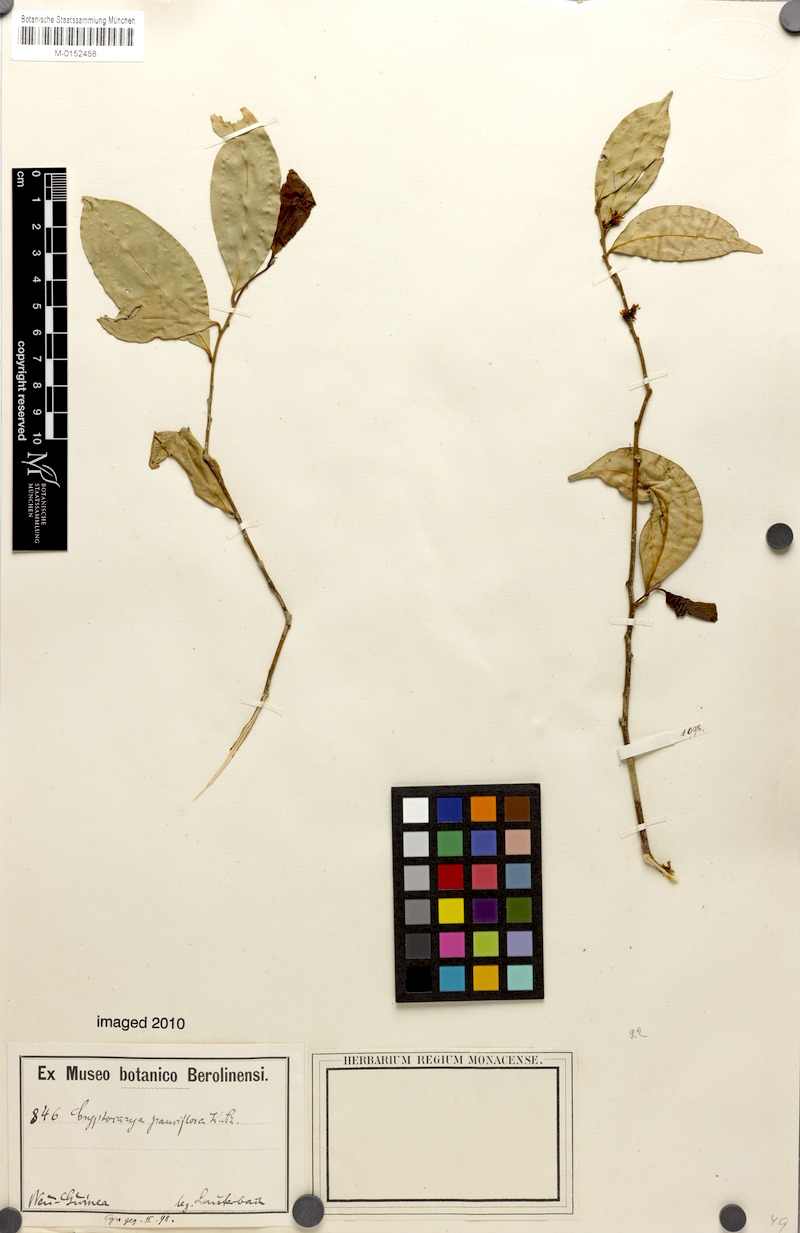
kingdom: Plantae
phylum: Tracheophyta
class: Magnoliopsida
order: Laurales
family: Lauraceae
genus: Cryptocarya
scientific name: Cryptocarya laevigata
